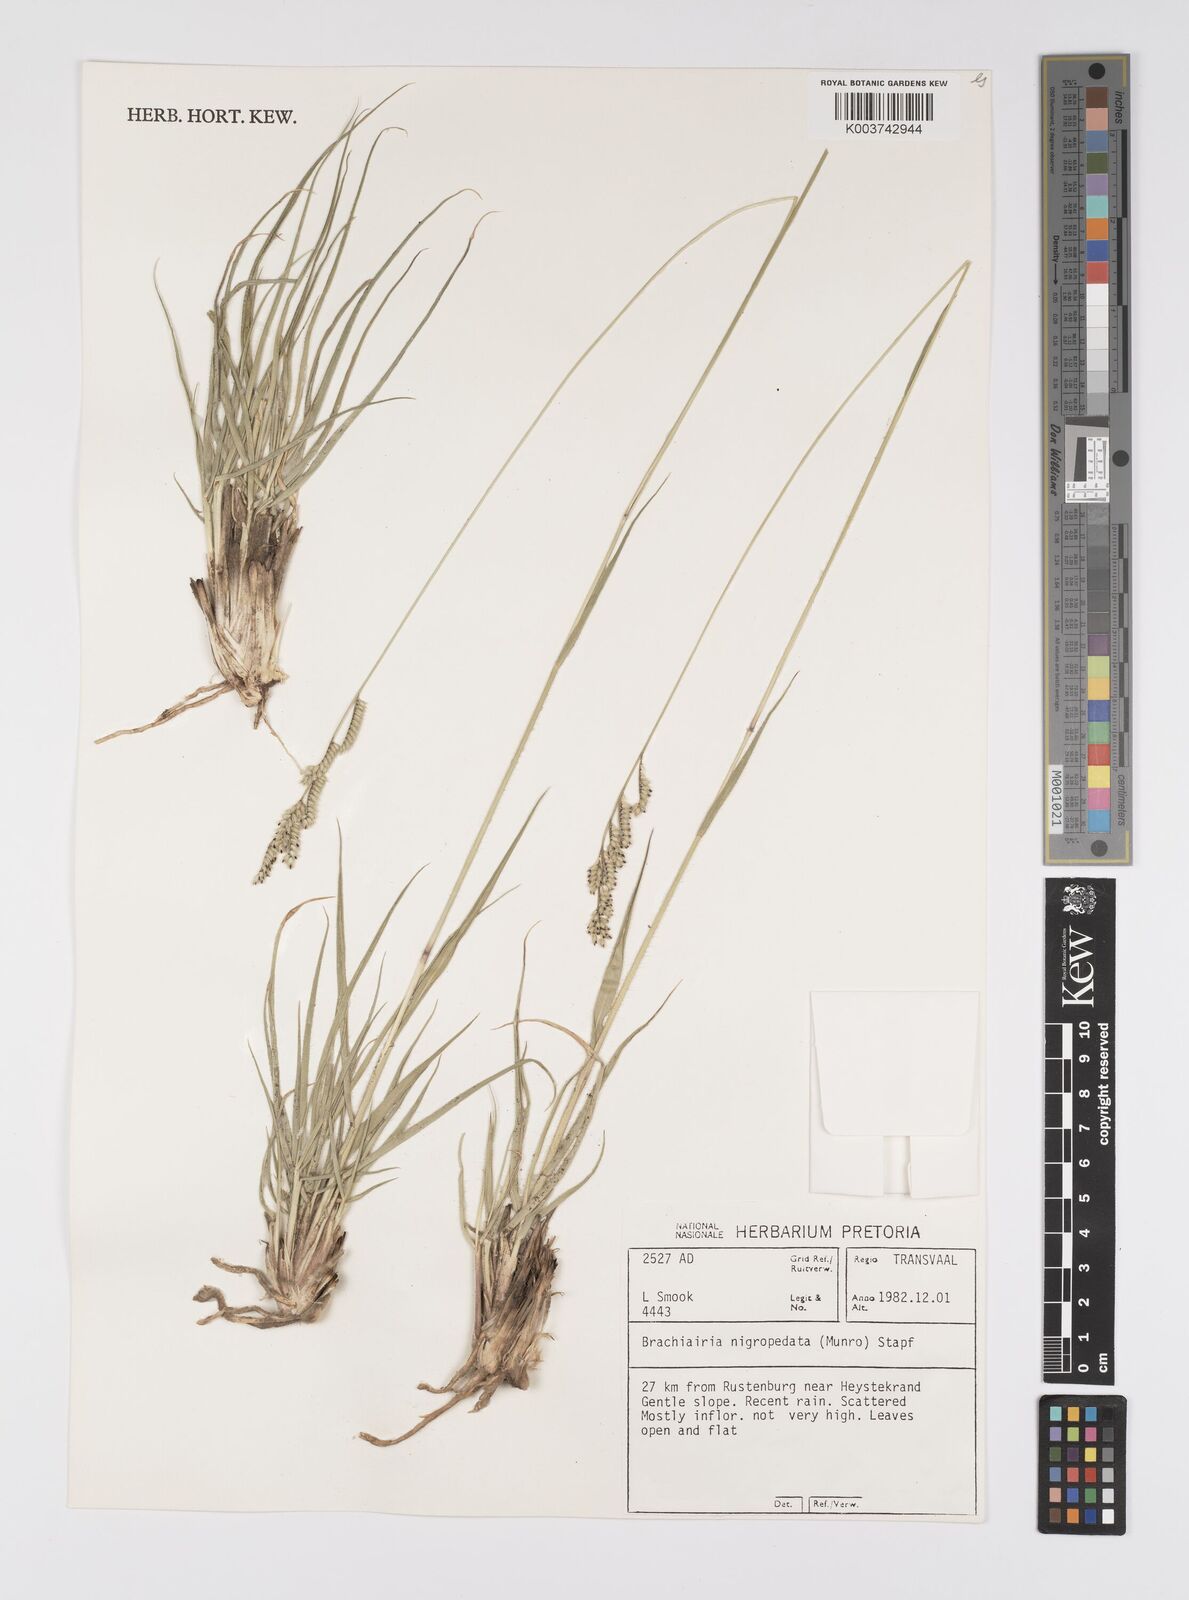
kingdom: Plantae
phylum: Tracheophyta
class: Liliopsida
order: Poales
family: Poaceae
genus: Urochloa
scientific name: Urochloa nigropedata
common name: Spotted signal grass
